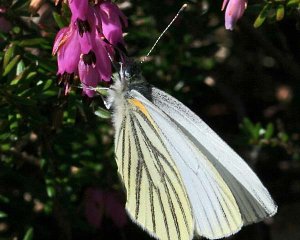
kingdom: Animalia
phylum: Arthropoda
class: Insecta
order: Lepidoptera
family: Pieridae
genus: Pieris
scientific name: Pieris oleracea
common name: Mustard White
